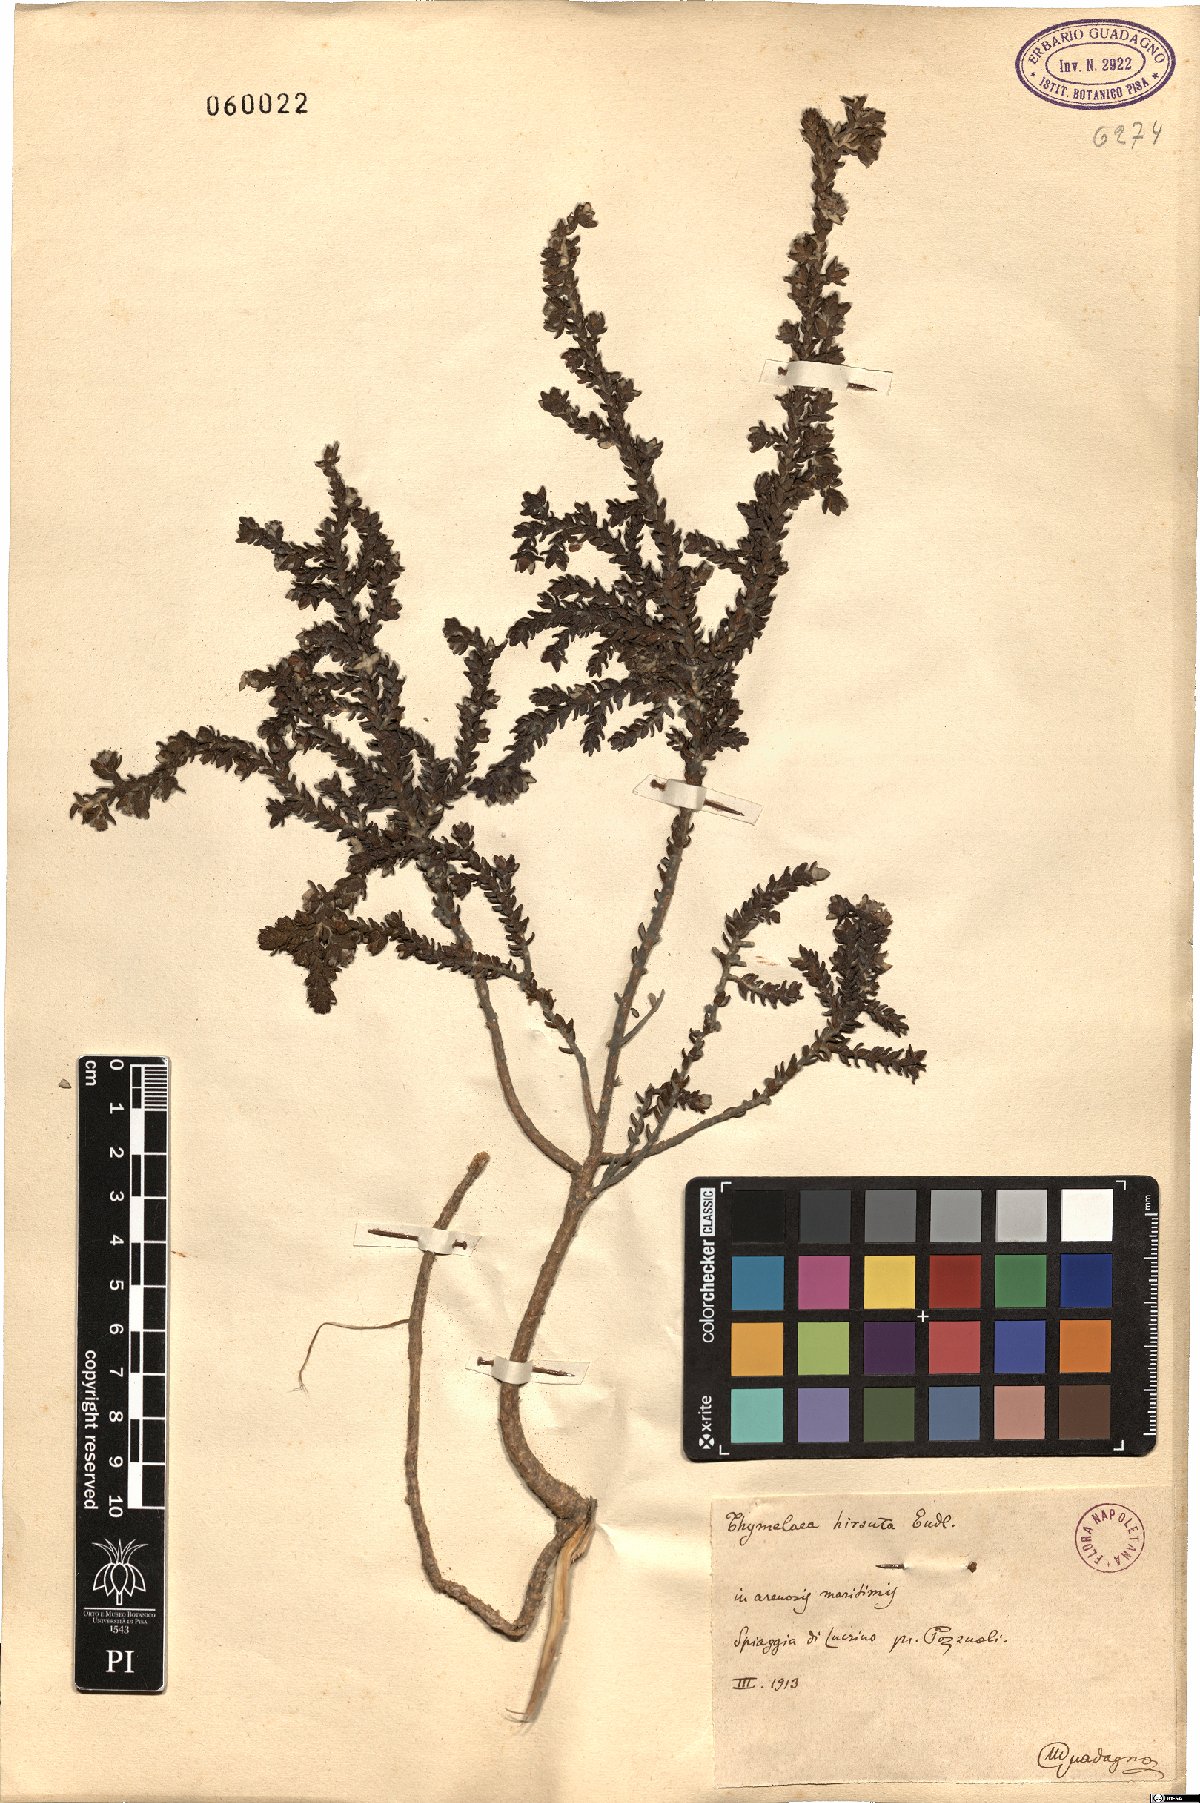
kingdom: Plantae
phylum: Tracheophyta
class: Magnoliopsida
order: Malvales
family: Thymelaeaceae
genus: Thymelaea
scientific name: Thymelaea hirsuta
